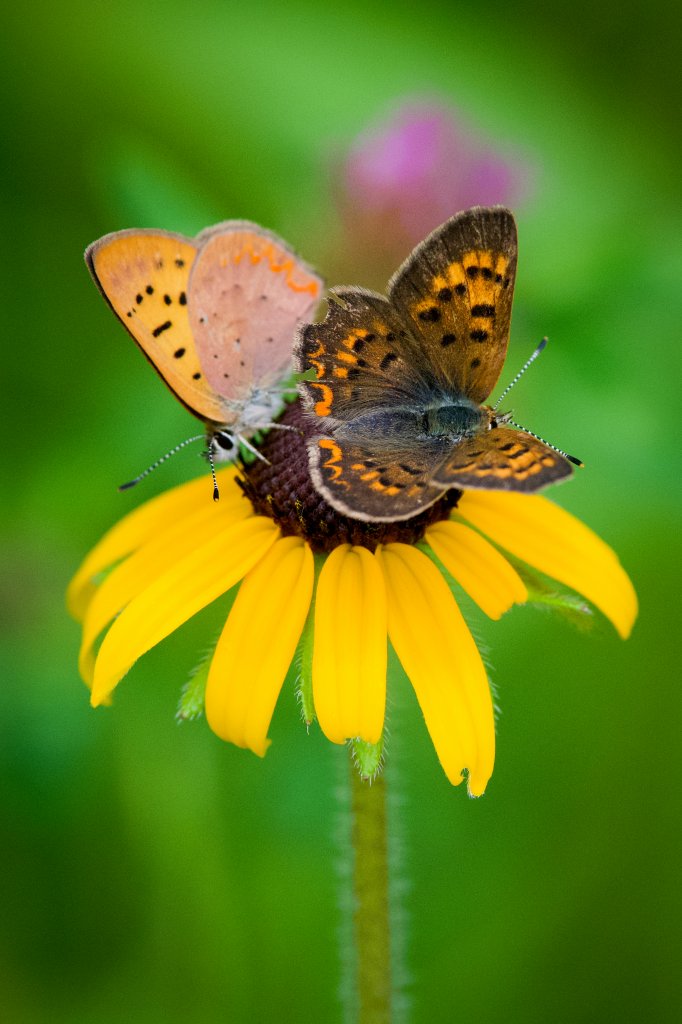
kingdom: Animalia
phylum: Arthropoda
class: Insecta
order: Lepidoptera
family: Lycaenidae
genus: Epidemia
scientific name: Epidemia dorcas
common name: Dorcas Copper
